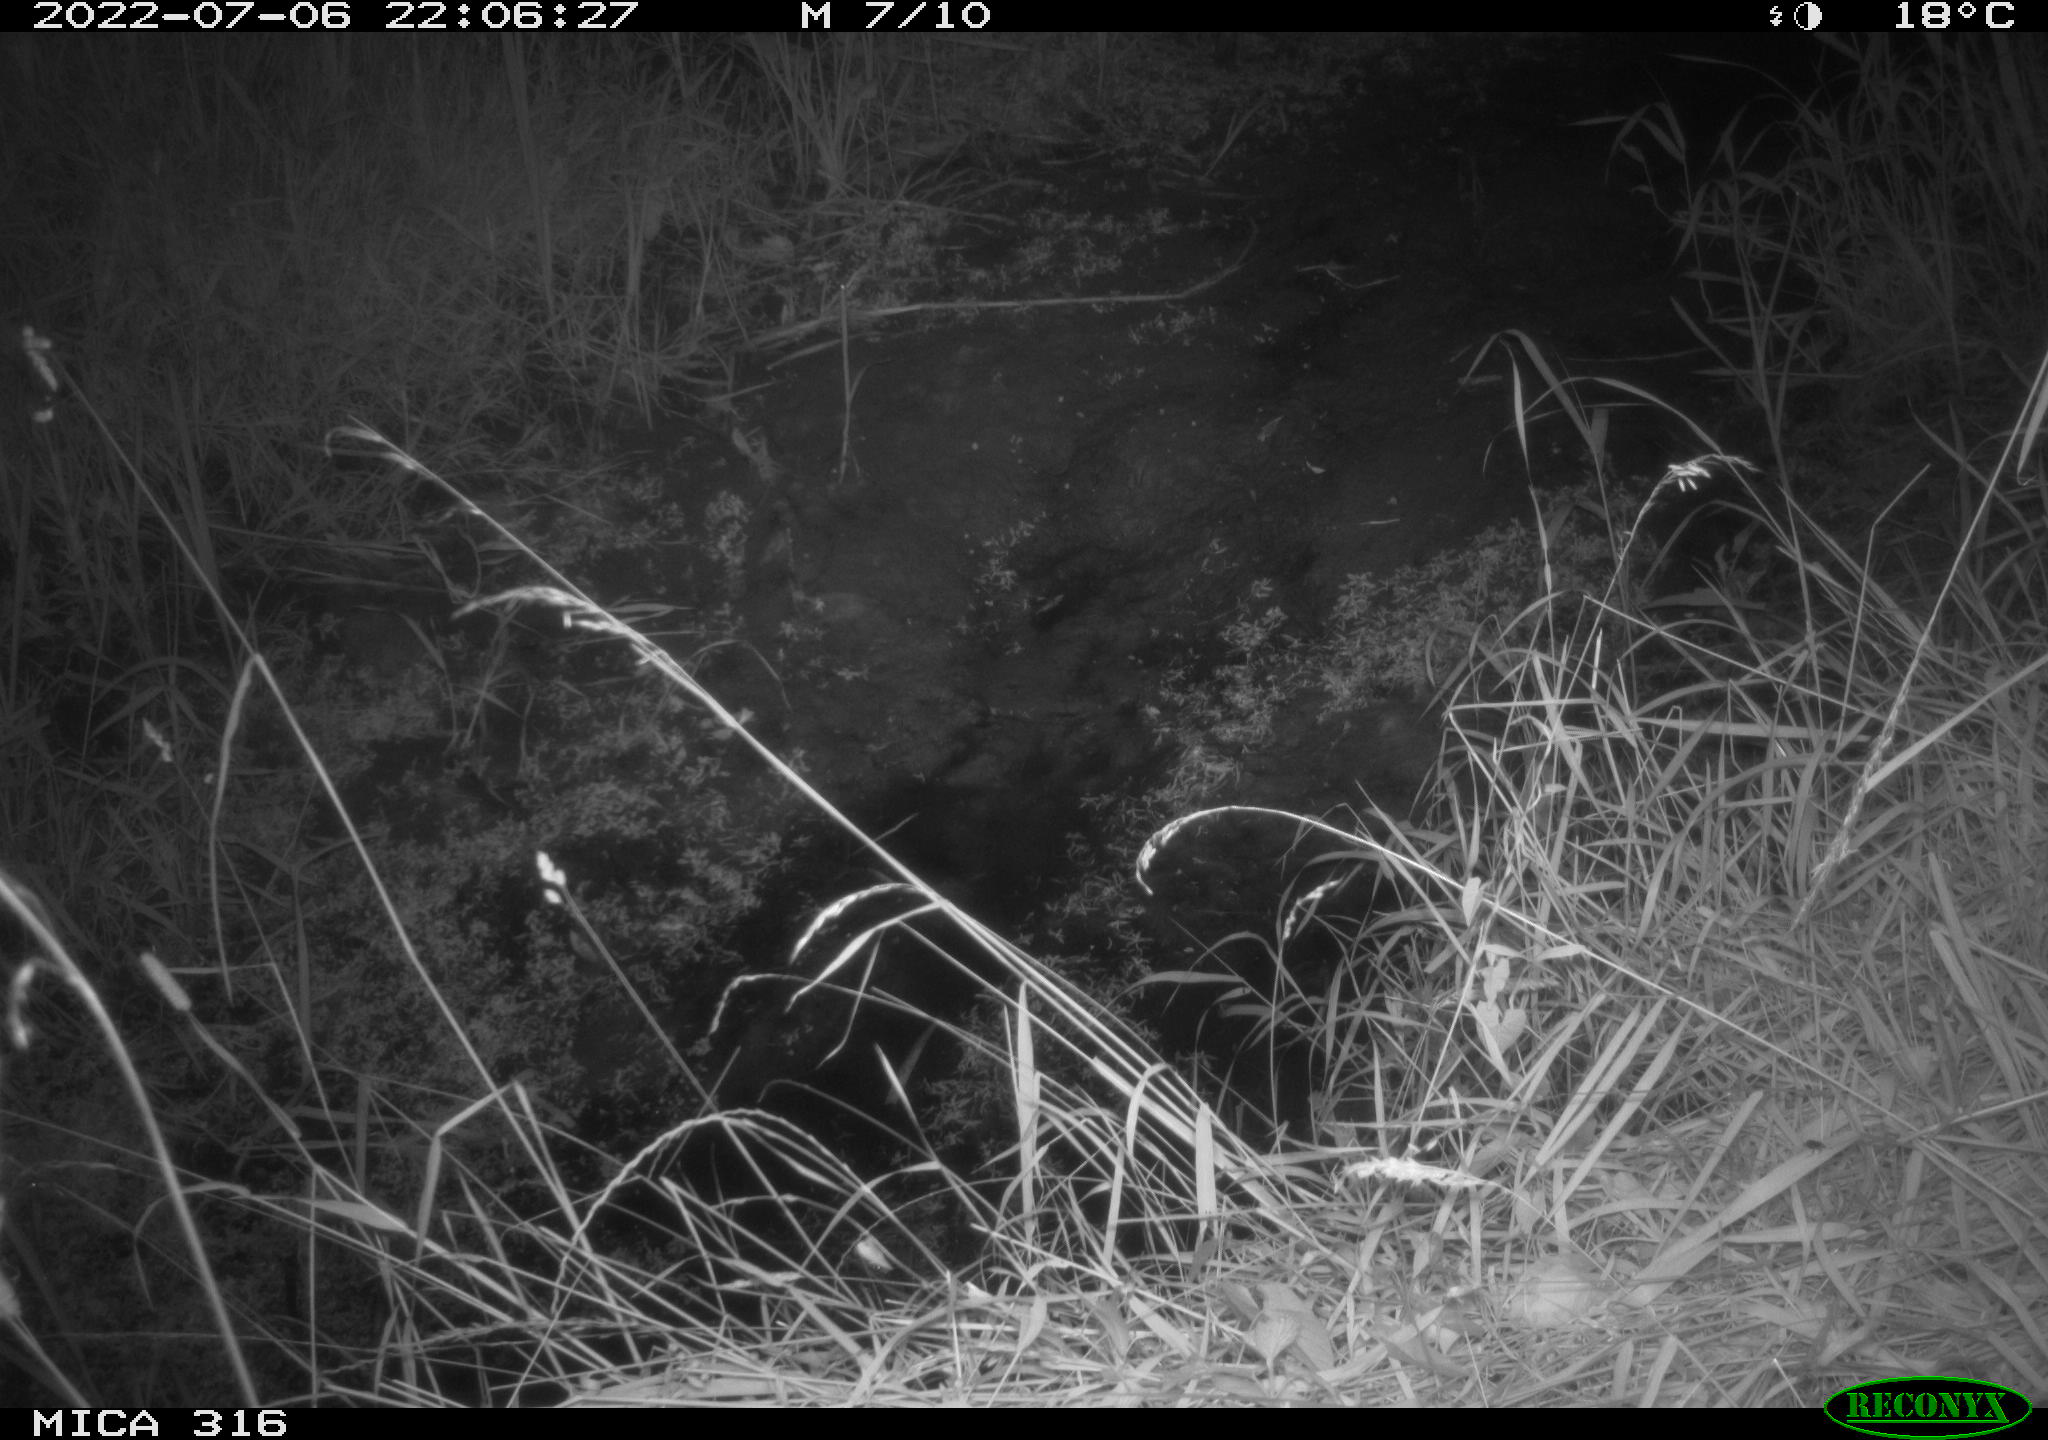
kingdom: Animalia
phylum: Chordata
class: Mammalia
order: Carnivora
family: Canidae
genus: Vulpes
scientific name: Vulpes vulpes
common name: Red fox
